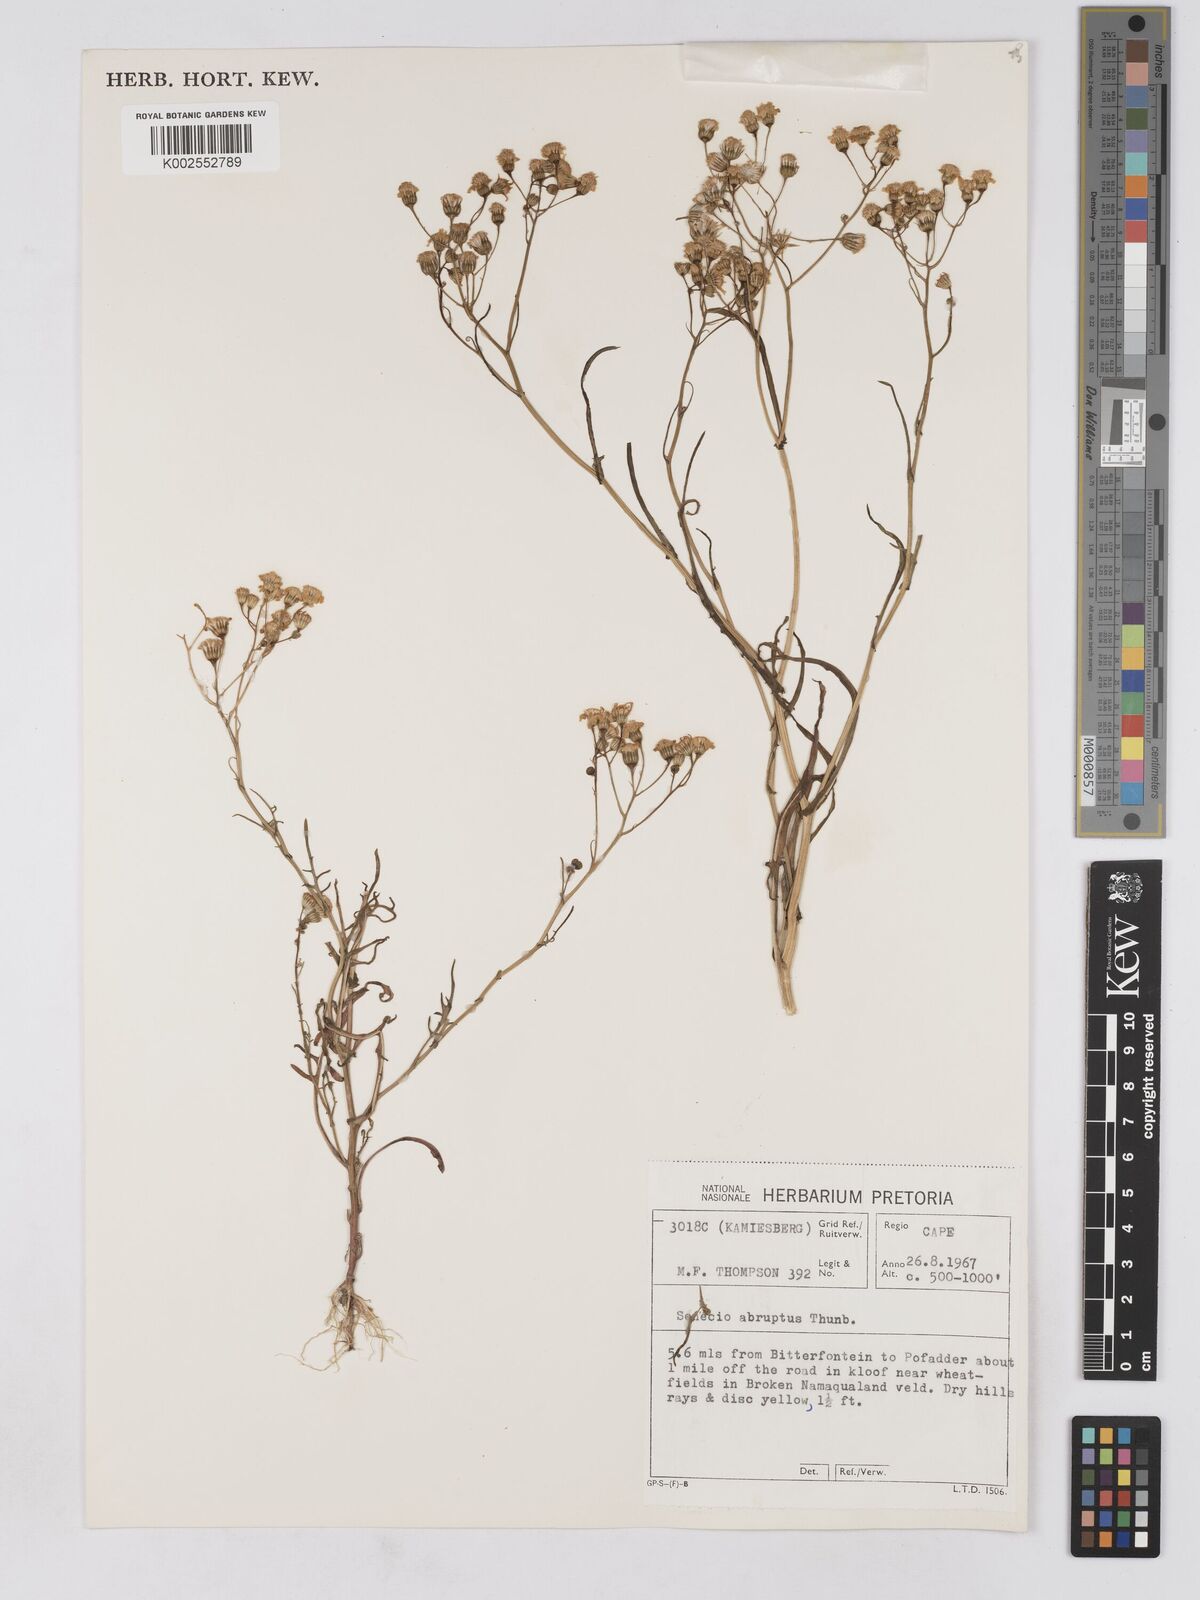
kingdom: Plantae
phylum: Tracheophyta
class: Magnoliopsida
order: Asterales
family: Asteraceae
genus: Senecio
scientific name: Senecio abruptus
